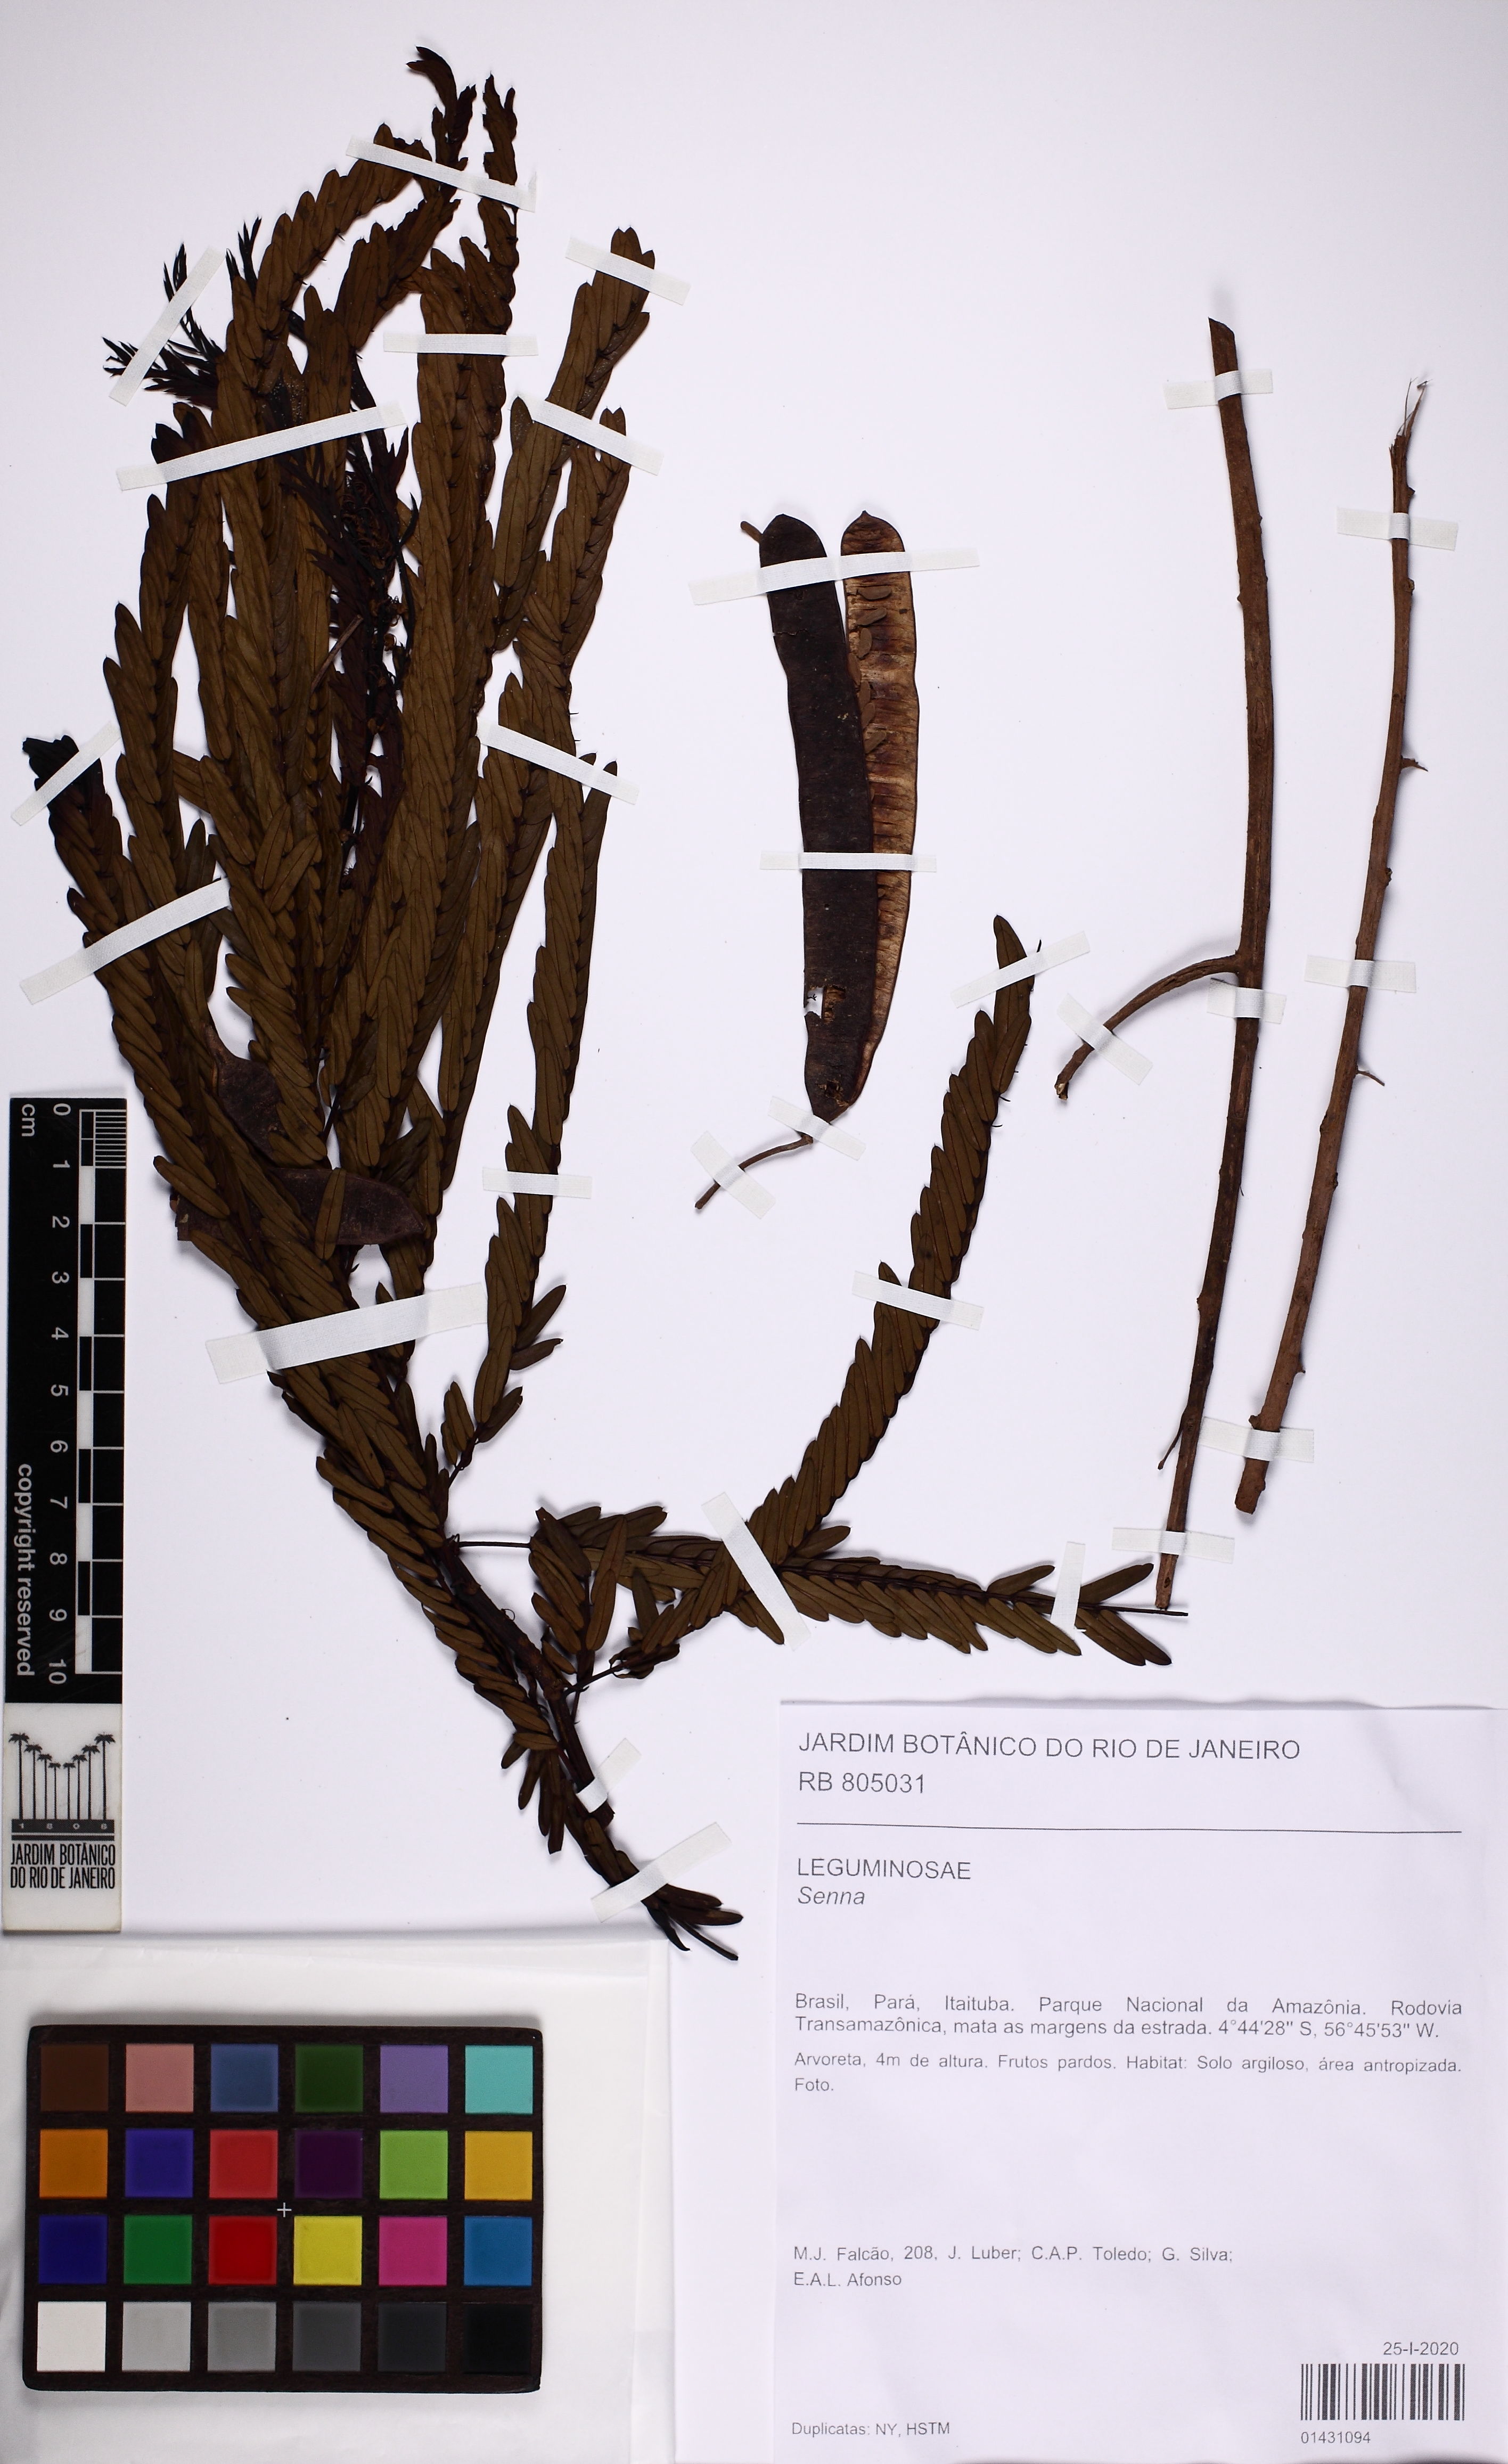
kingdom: Plantae
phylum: Tracheophyta
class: Magnoliopsida
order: Fabales
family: Fabaceae
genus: Senna
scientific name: Senna
